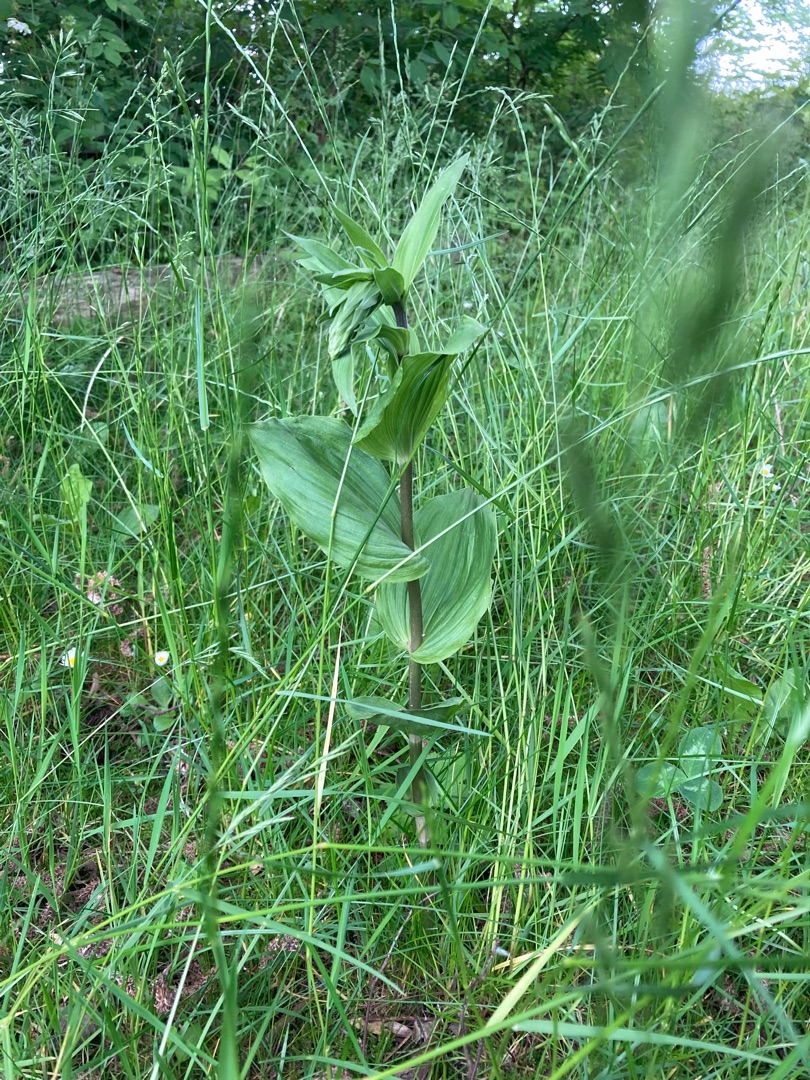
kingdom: Plantae
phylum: Tracheophyta
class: Liliopsida
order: Asparagales
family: Orchidaceae
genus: Epipactis
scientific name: Epipactis helleborine
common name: Skov-hullæbe
